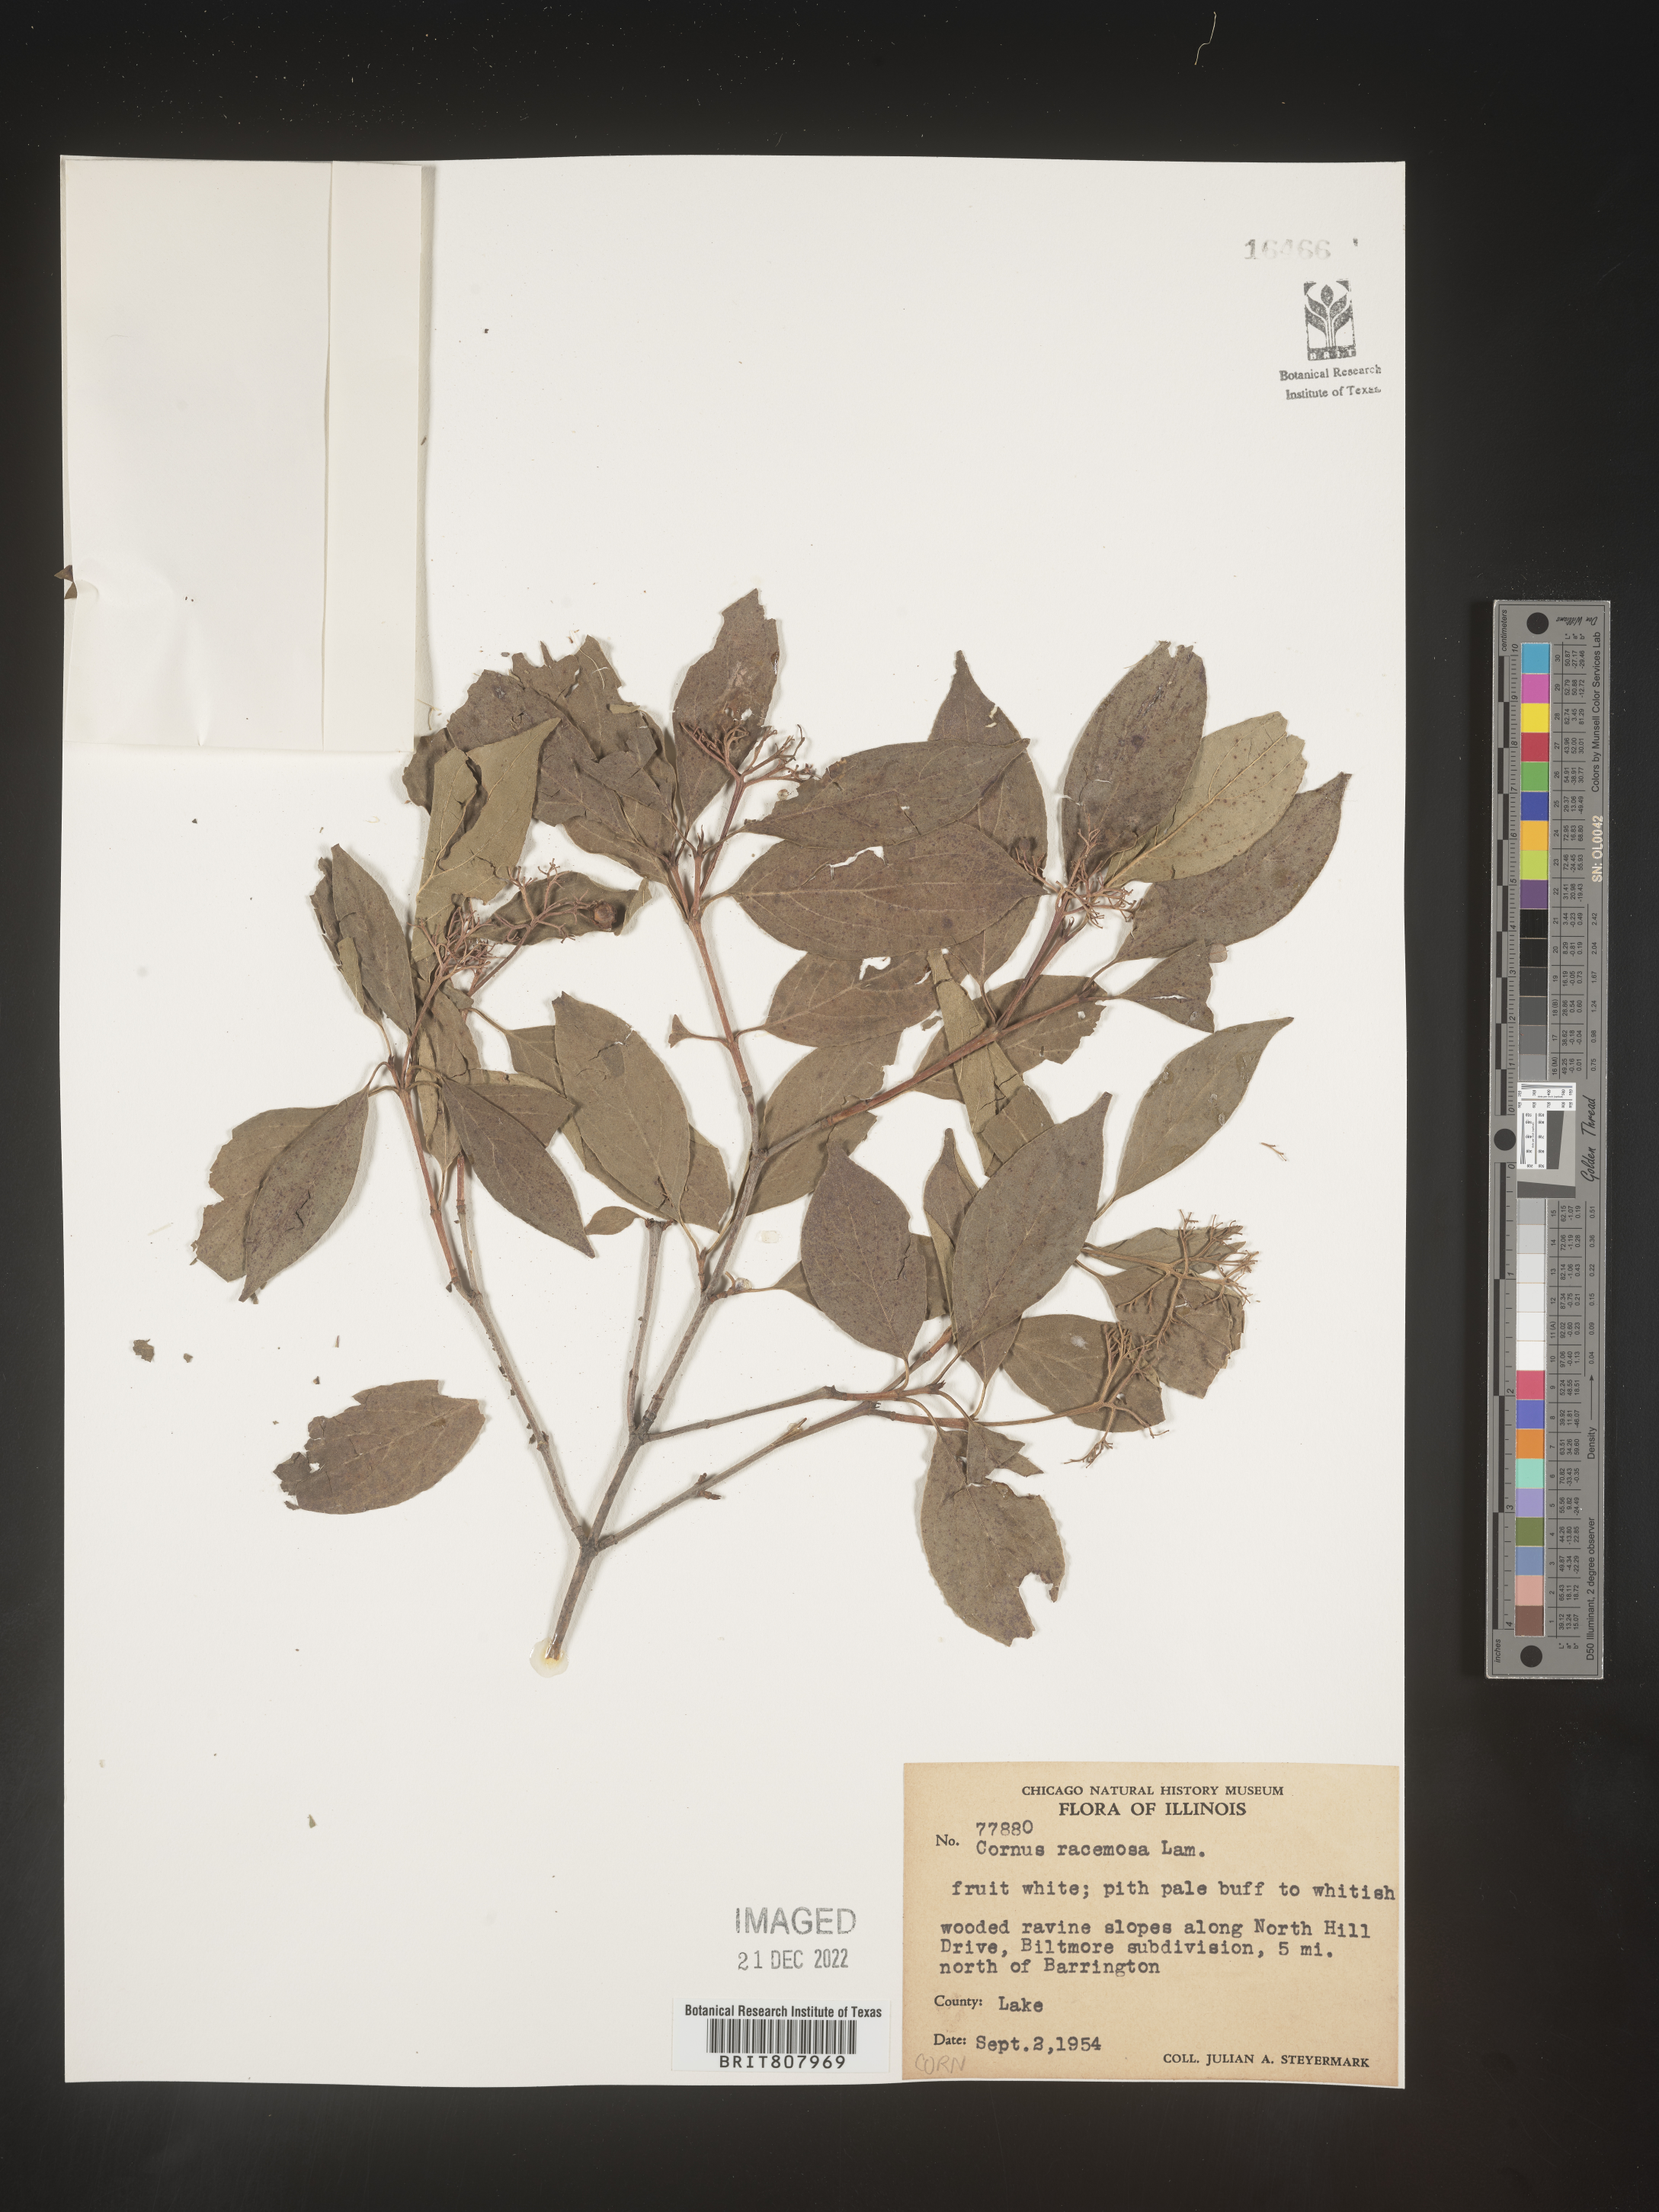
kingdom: Plantae
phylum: Tracheophyta
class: Magnoliopsida
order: Cornales
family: Cornaceae
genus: Cornus
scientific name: Cornus racemosa
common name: Panicled dogwood
